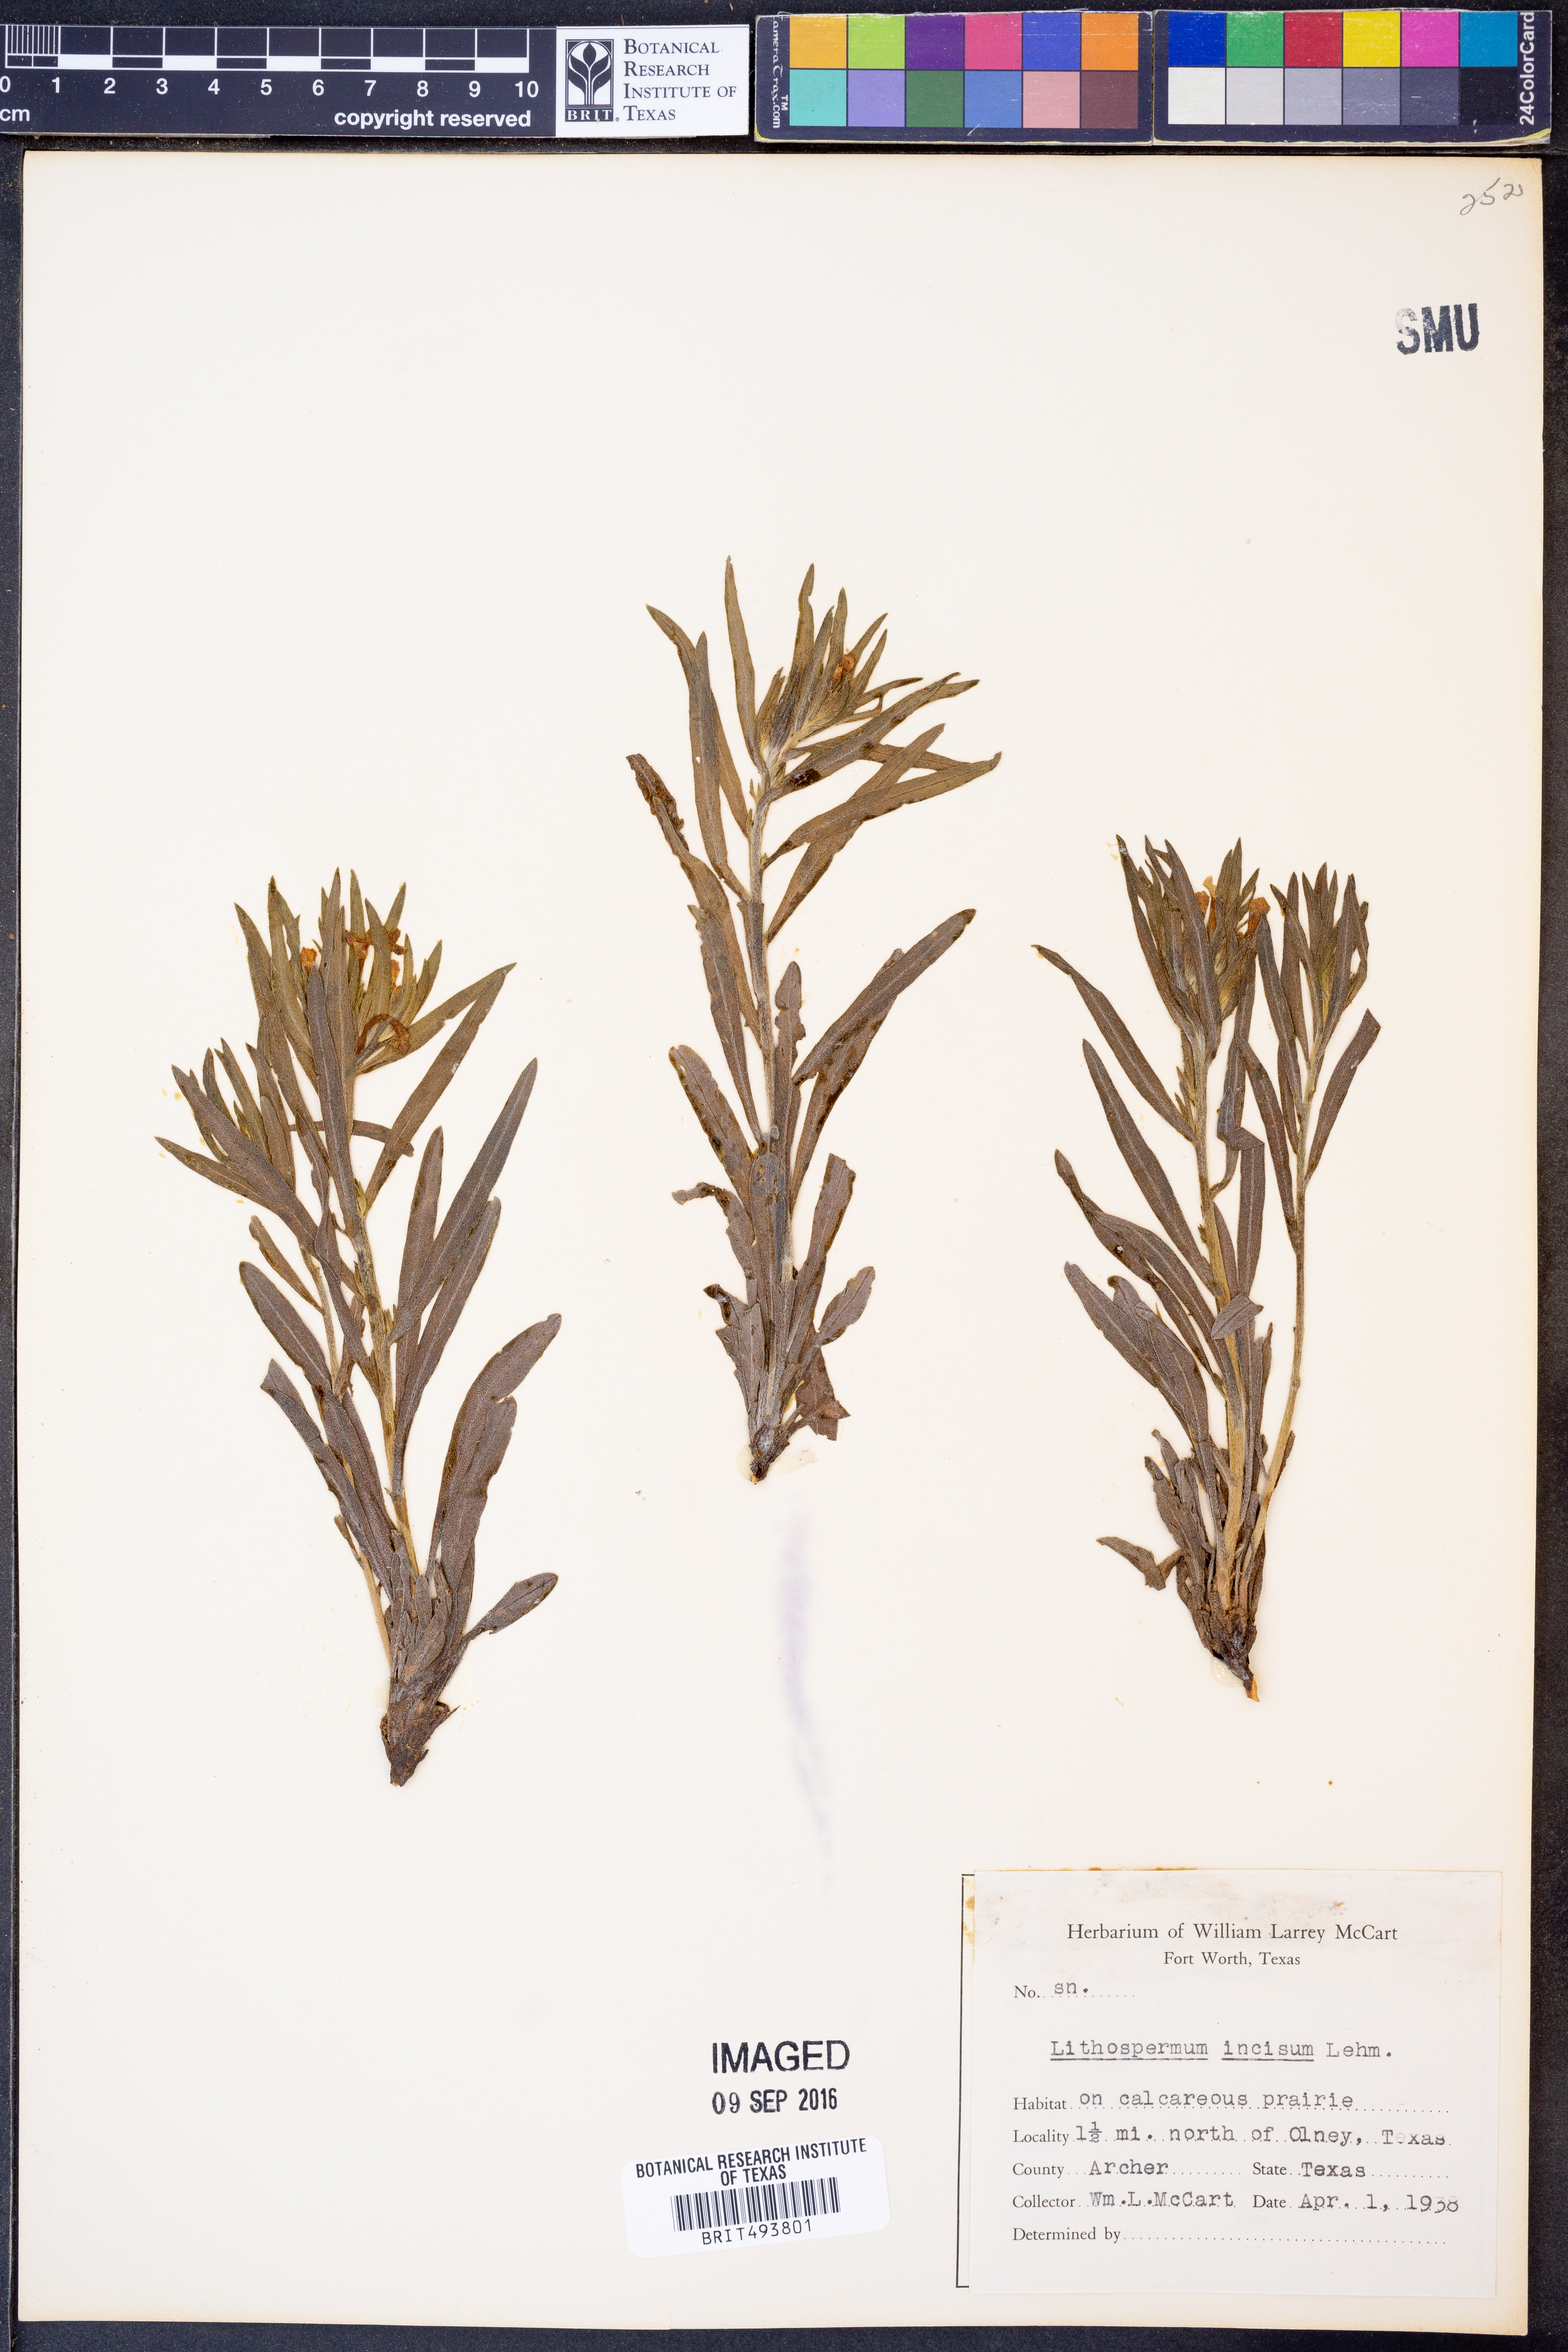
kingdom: Plantae
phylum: Tracheophyta
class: Magnoliopsida
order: Boraginales
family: Boraginaceae
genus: Lithospermum
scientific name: Lithospermum incisum
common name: Fringed gromwell
